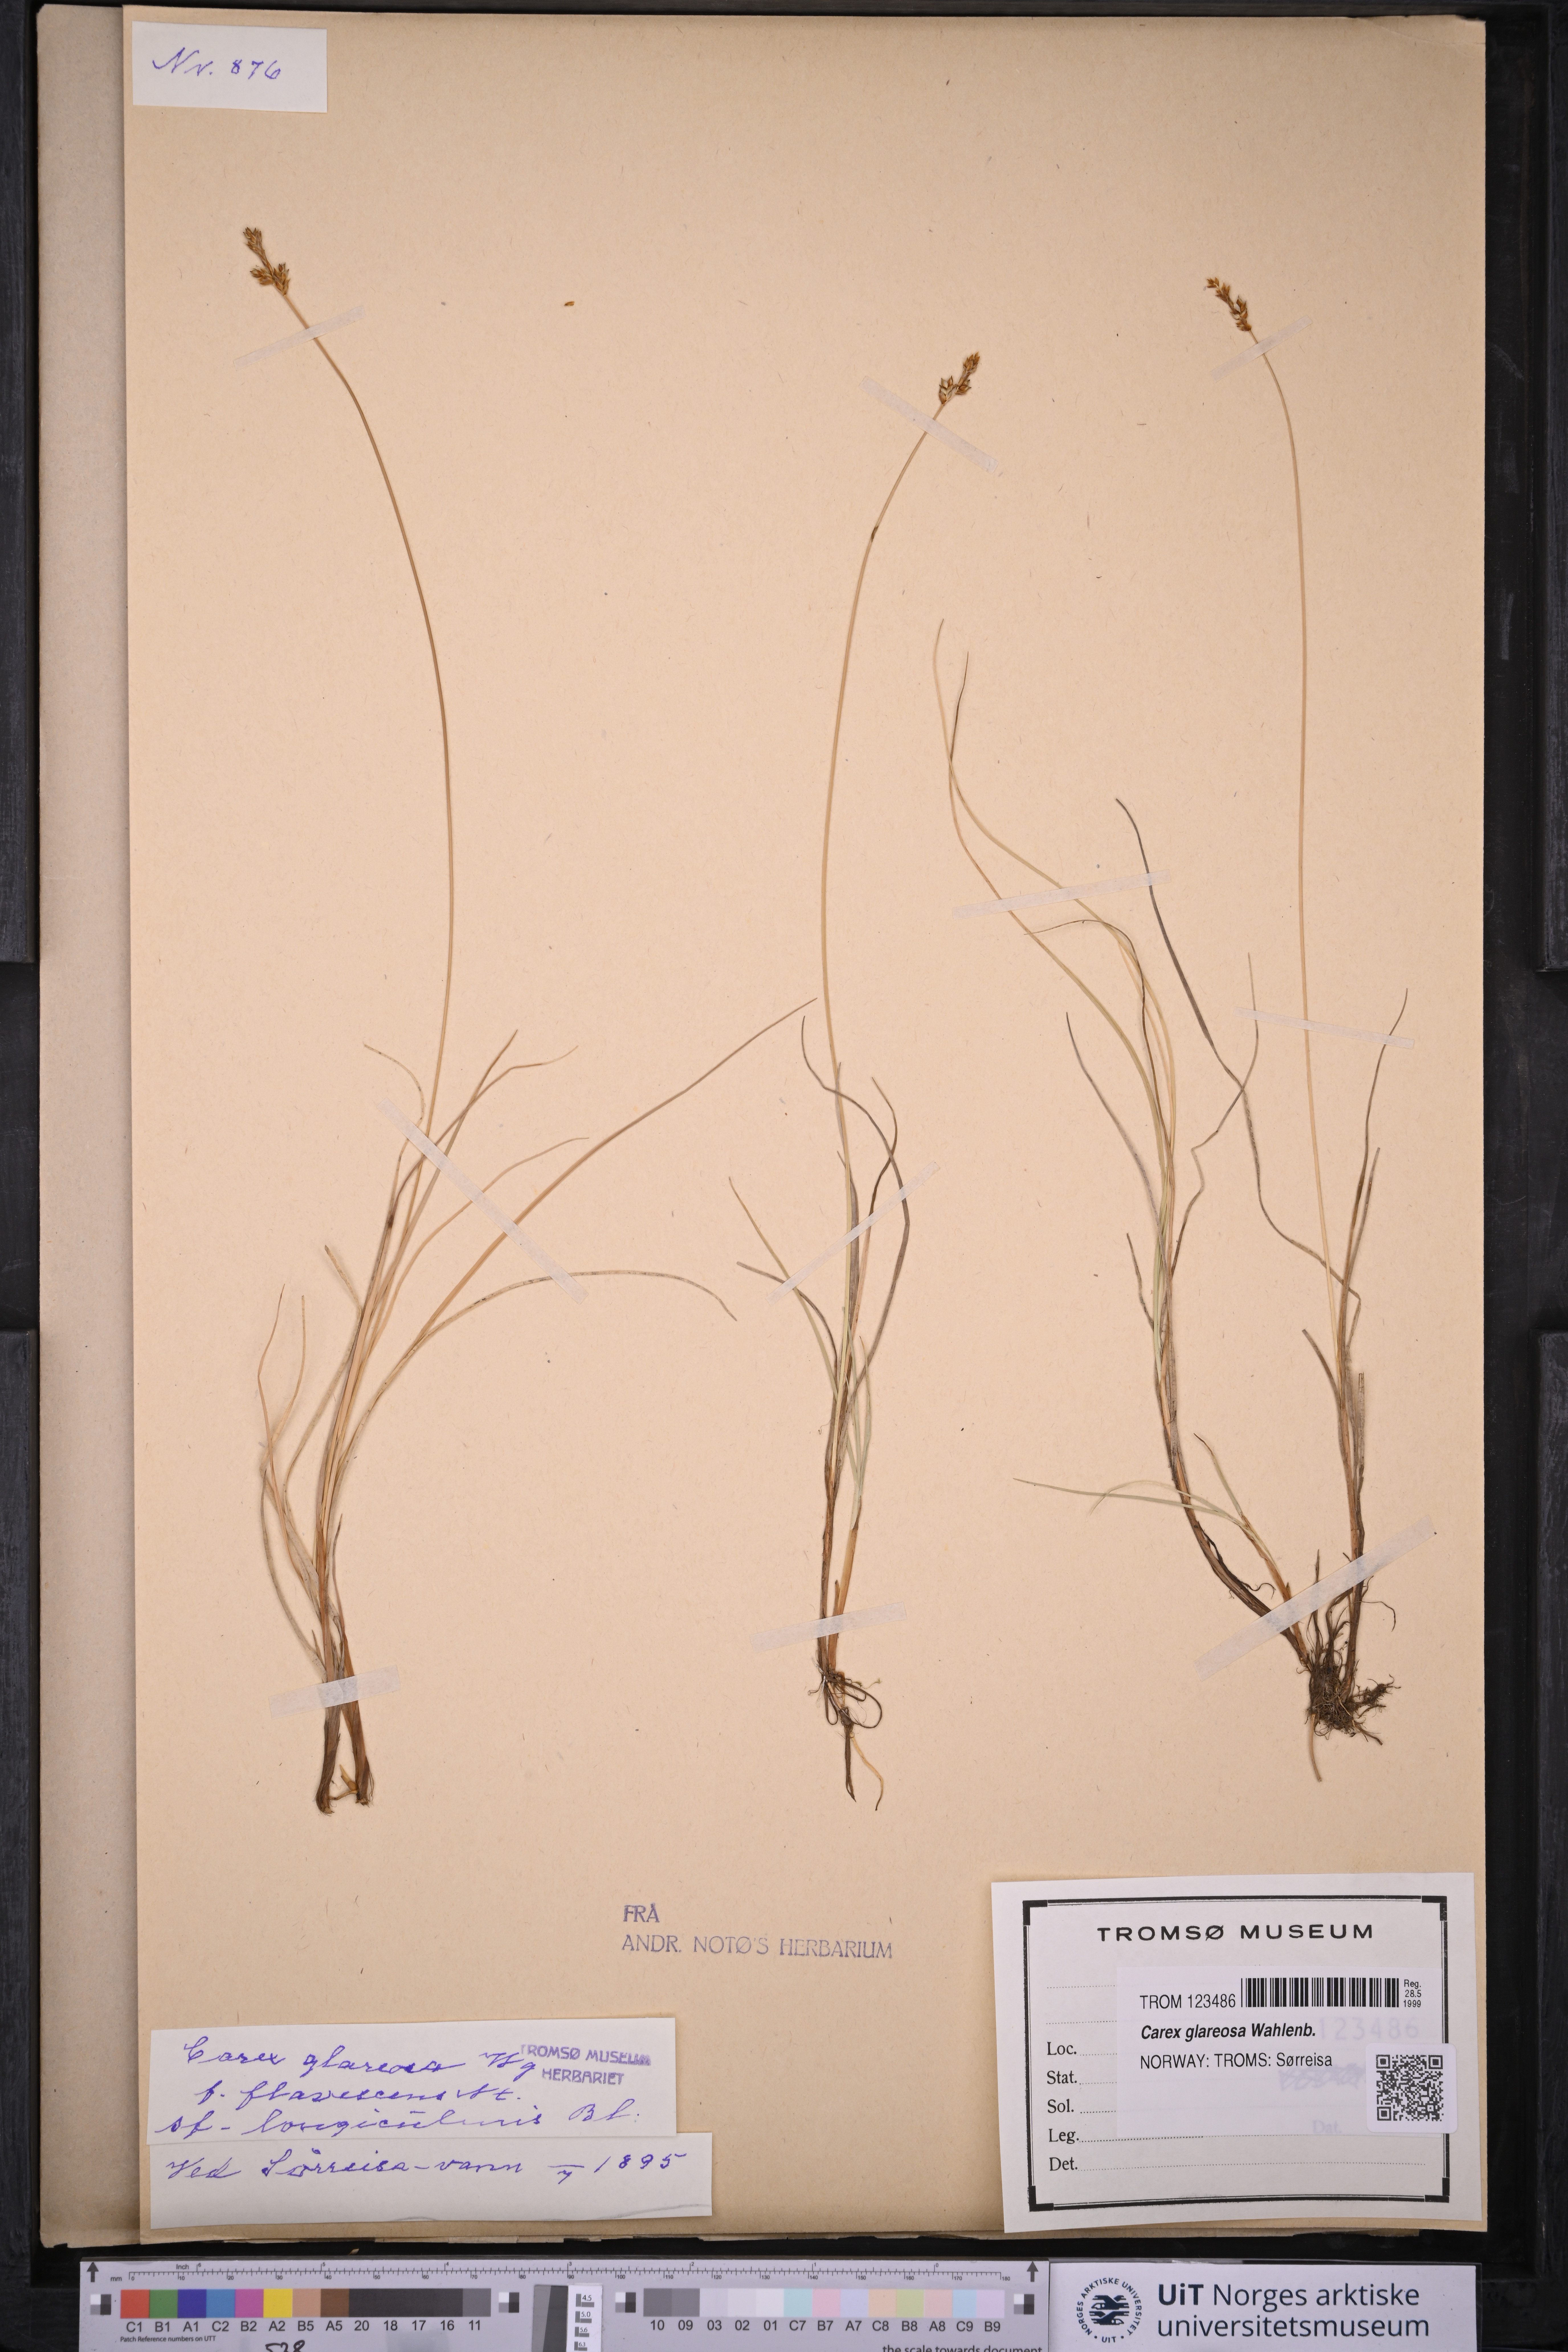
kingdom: Plantae
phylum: Tracheophyta
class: Liliopsida
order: Poales
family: Cyperaceae
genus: Carex
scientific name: Carex glareosa
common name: Clustered sedge
